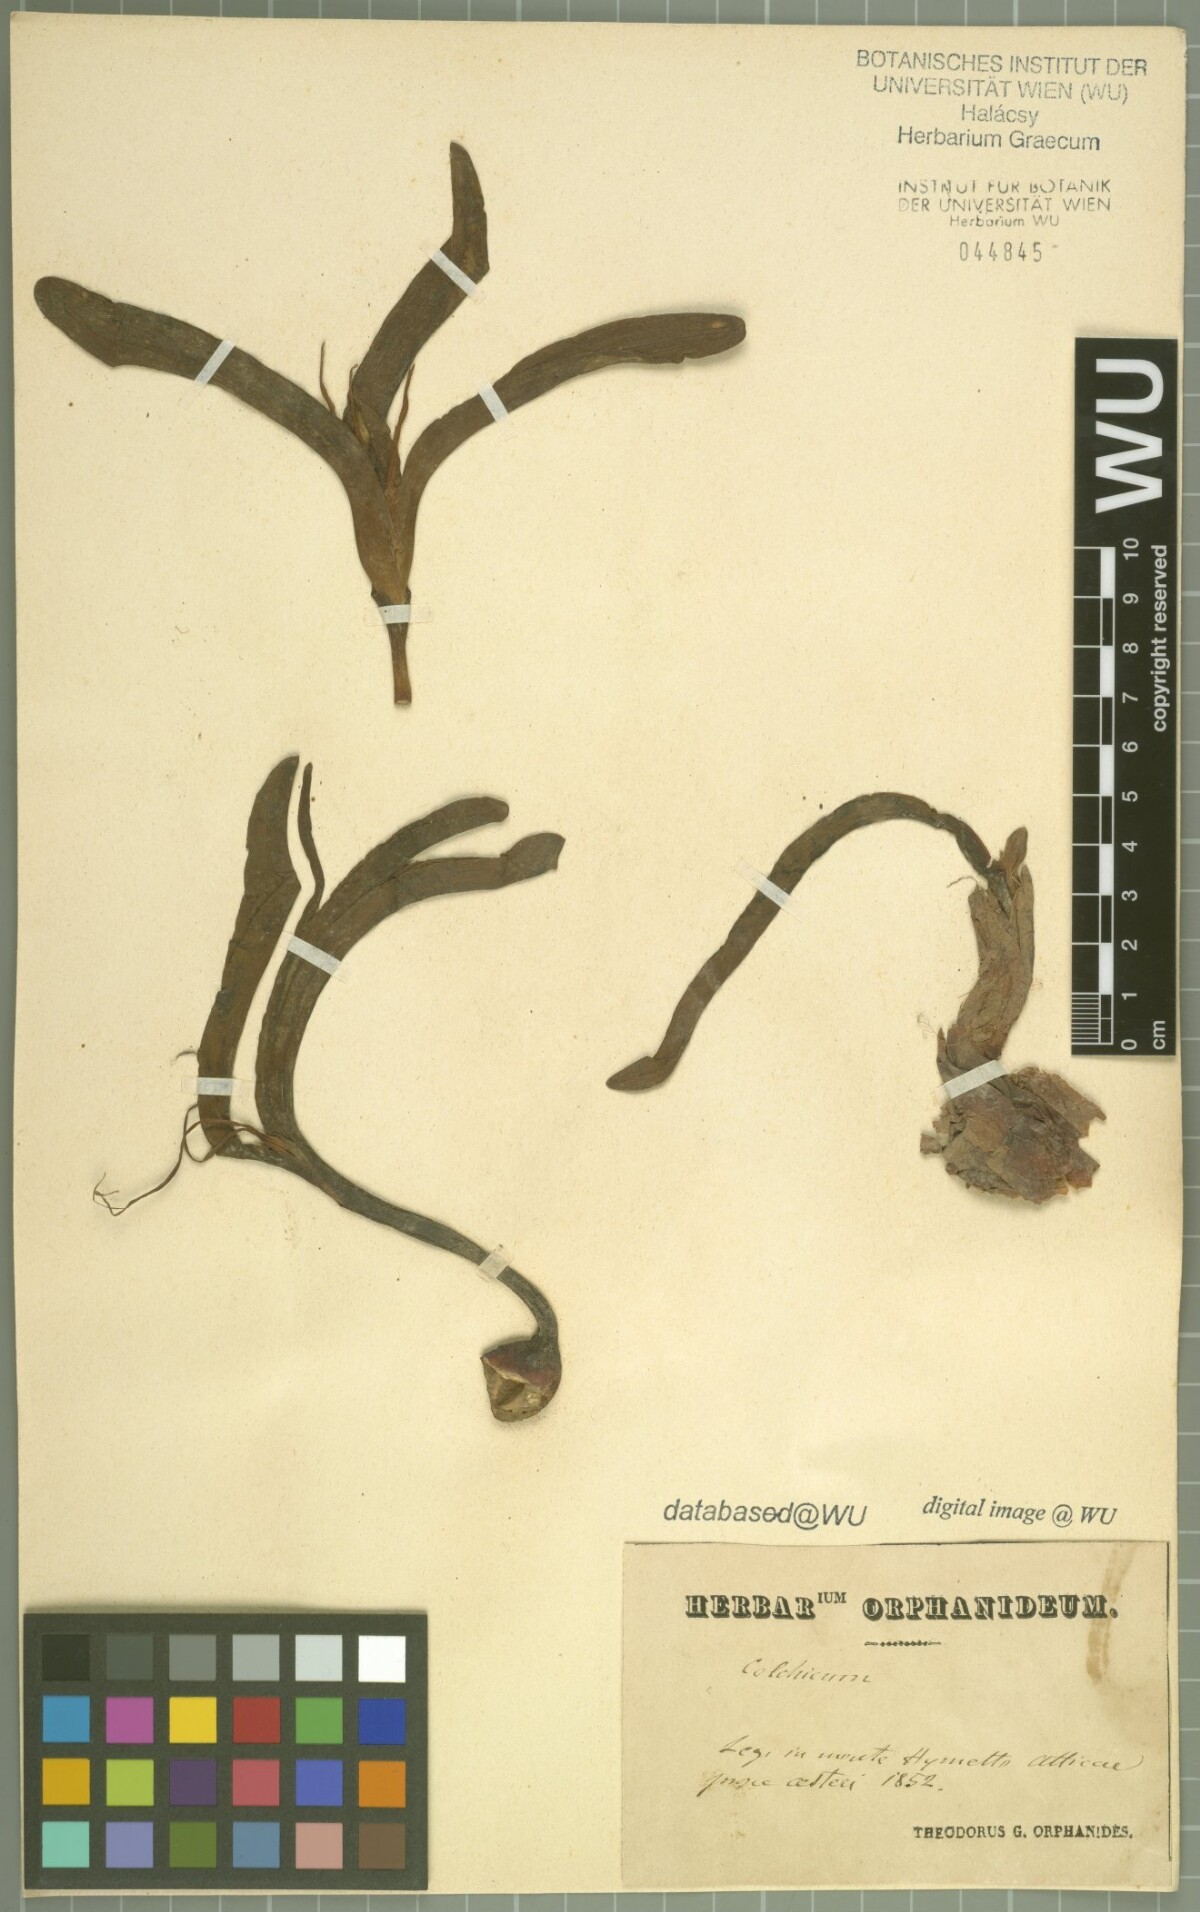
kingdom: Plantae
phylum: Tracheophyta
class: Liliopsida
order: Liliales
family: Colchicaceae
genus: Colchicum
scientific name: Colchicum sfikasianum
